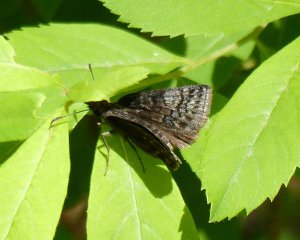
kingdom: Animalia
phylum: Arthropoda
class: Insecta
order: Lepidoptera
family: Hesperiidae
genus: Erynnis
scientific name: Erynnis icelus
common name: Dreamy Duskywing
